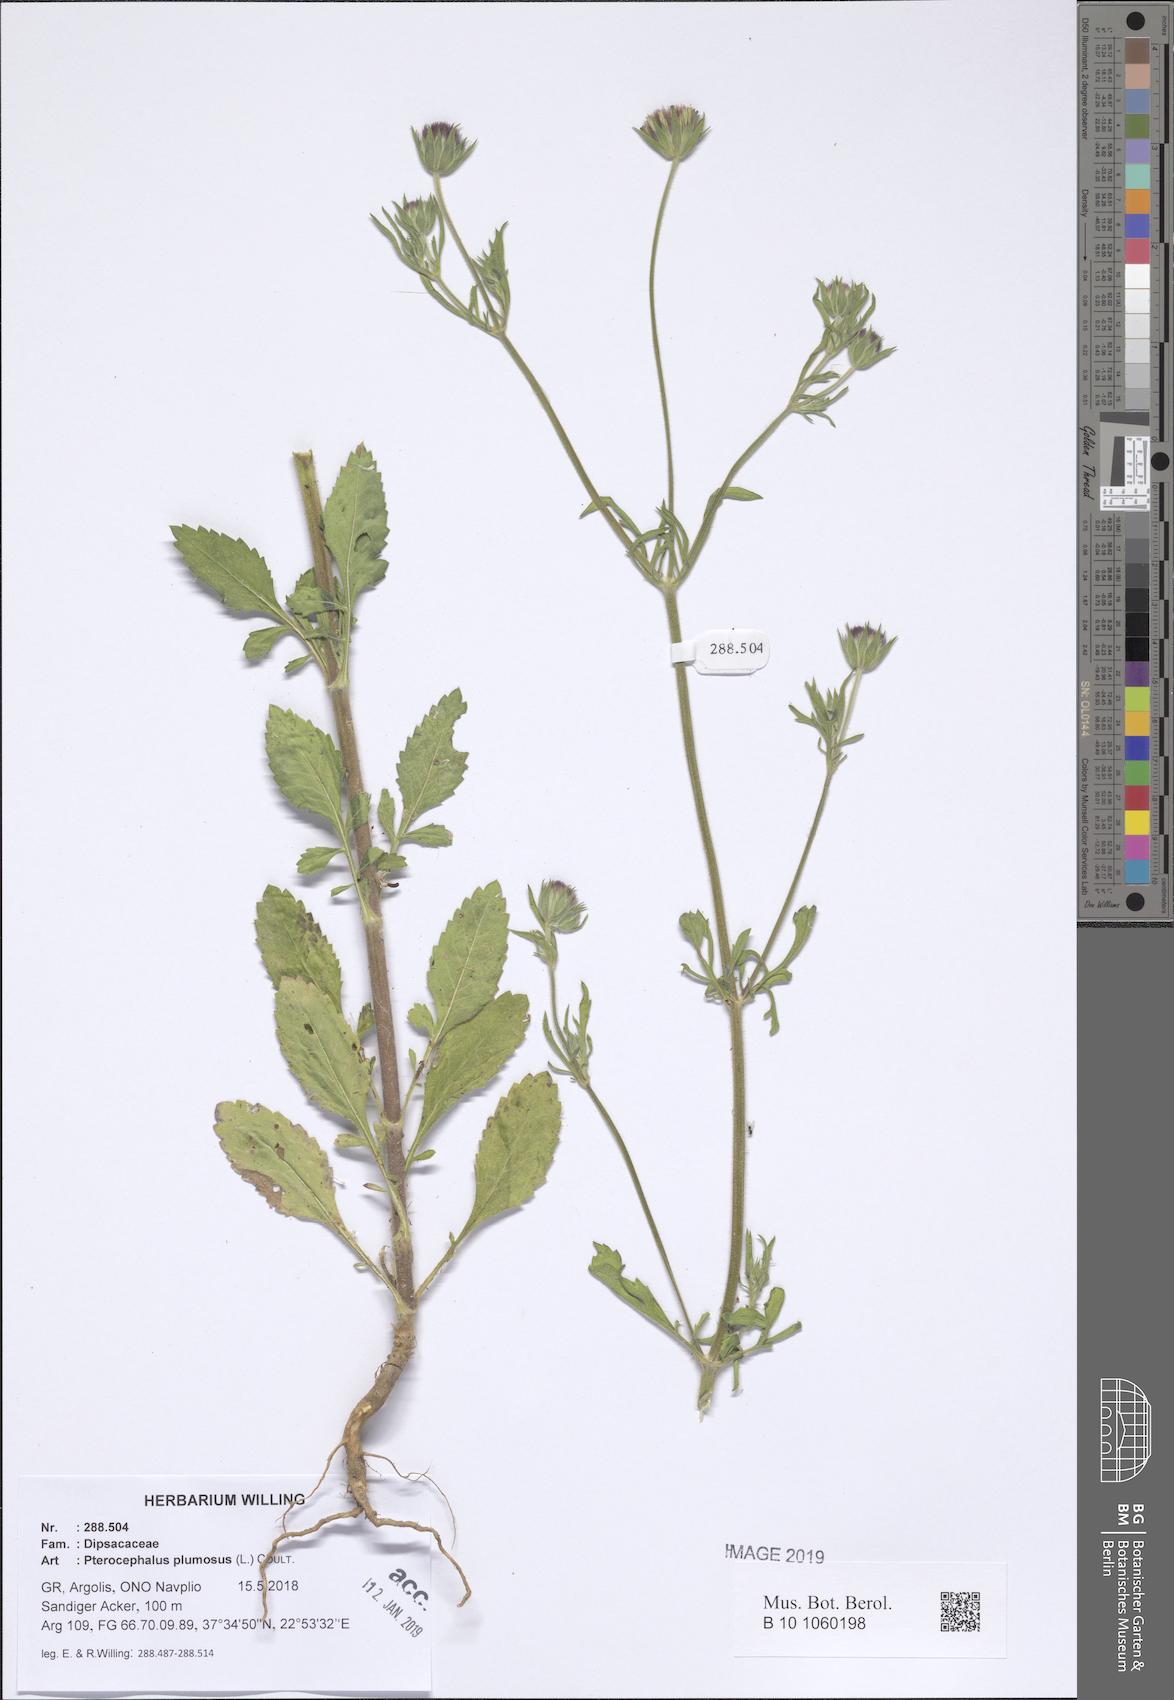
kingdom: Plantae
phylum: Tracheophyta
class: Magnoliopsida
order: Dipsacales
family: Caprifoliaceae
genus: Pterocephalus
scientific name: Pterocephalus plumosus
